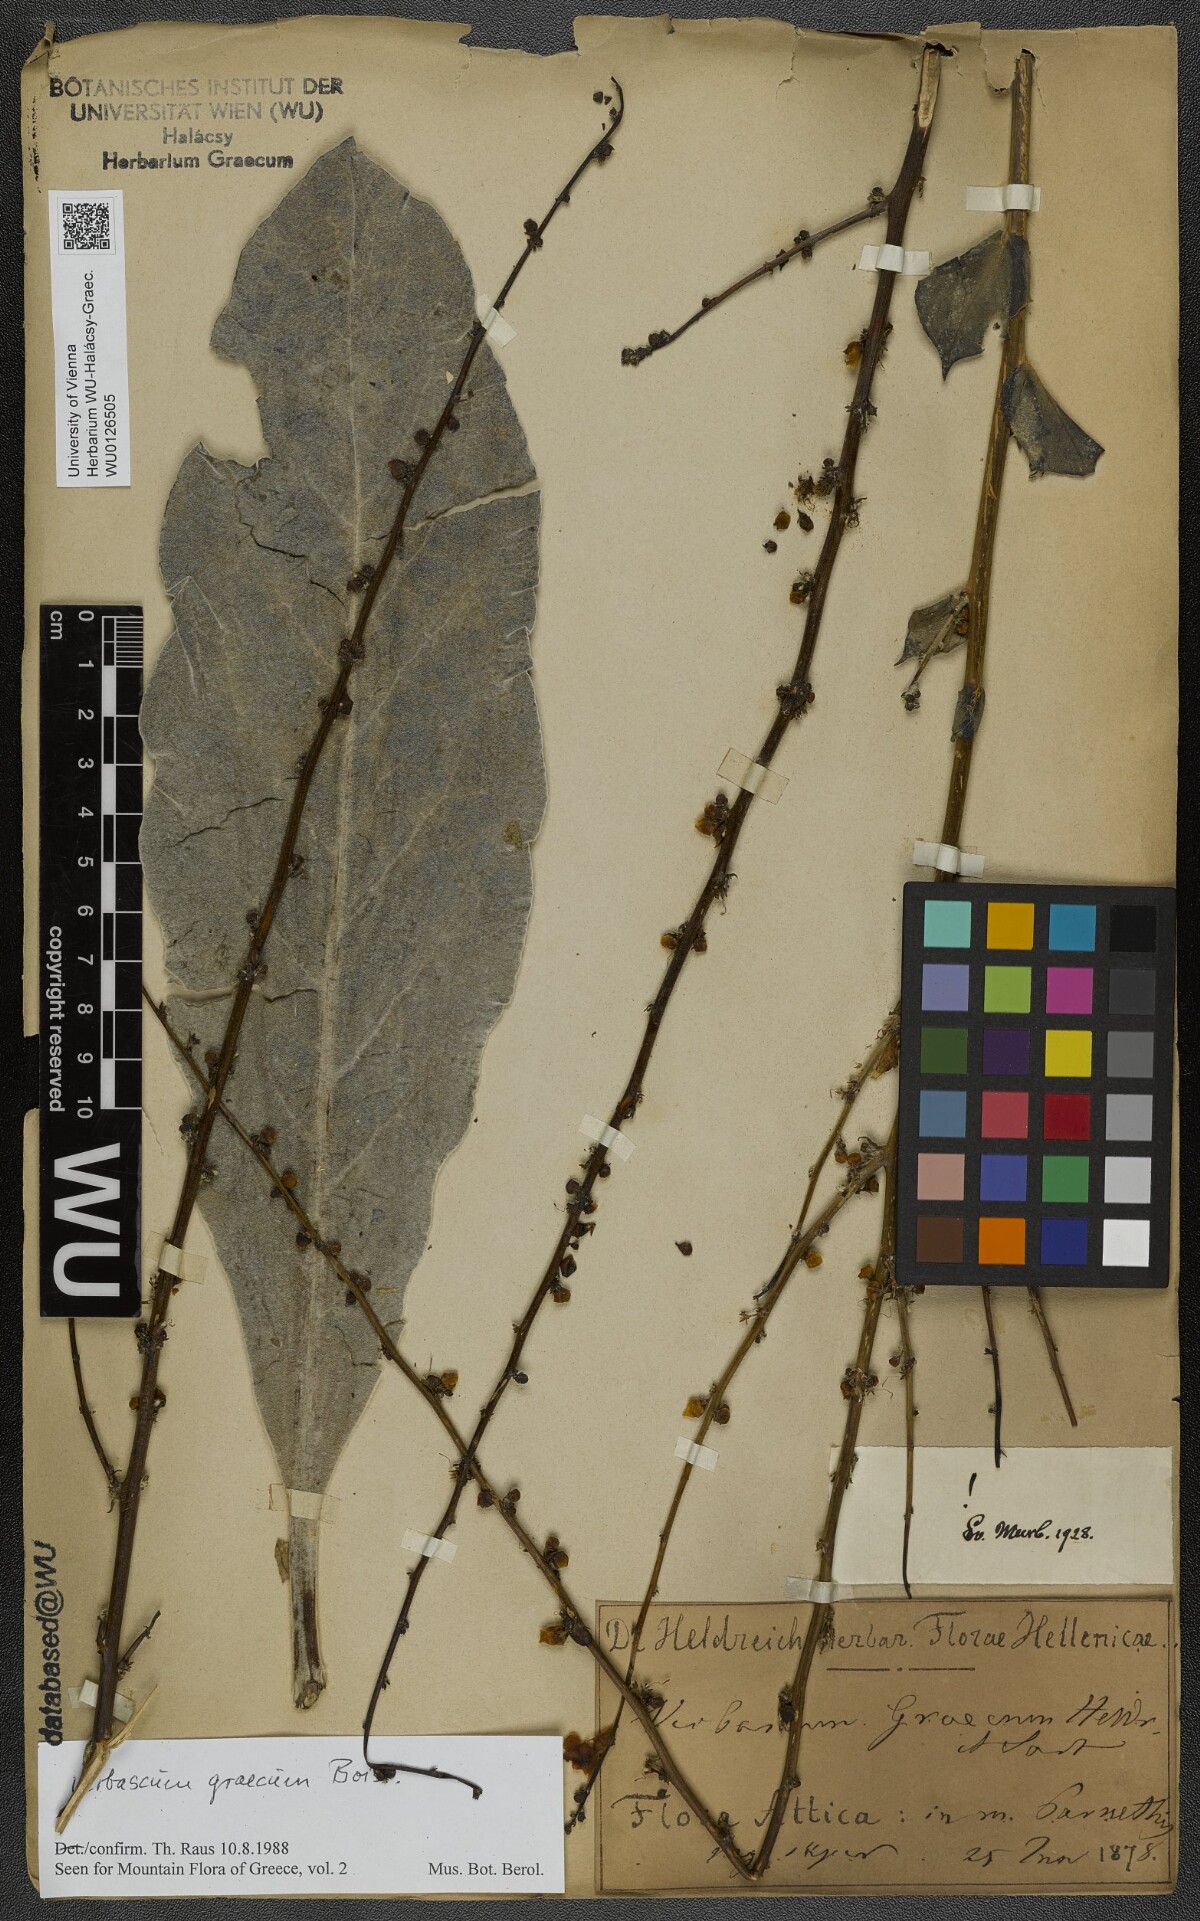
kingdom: Plantae
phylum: Tracheophyta
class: Magnoliopsida
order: Lamiales
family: Scrophulariaceae
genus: Verbascum
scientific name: Verbascum graecum
